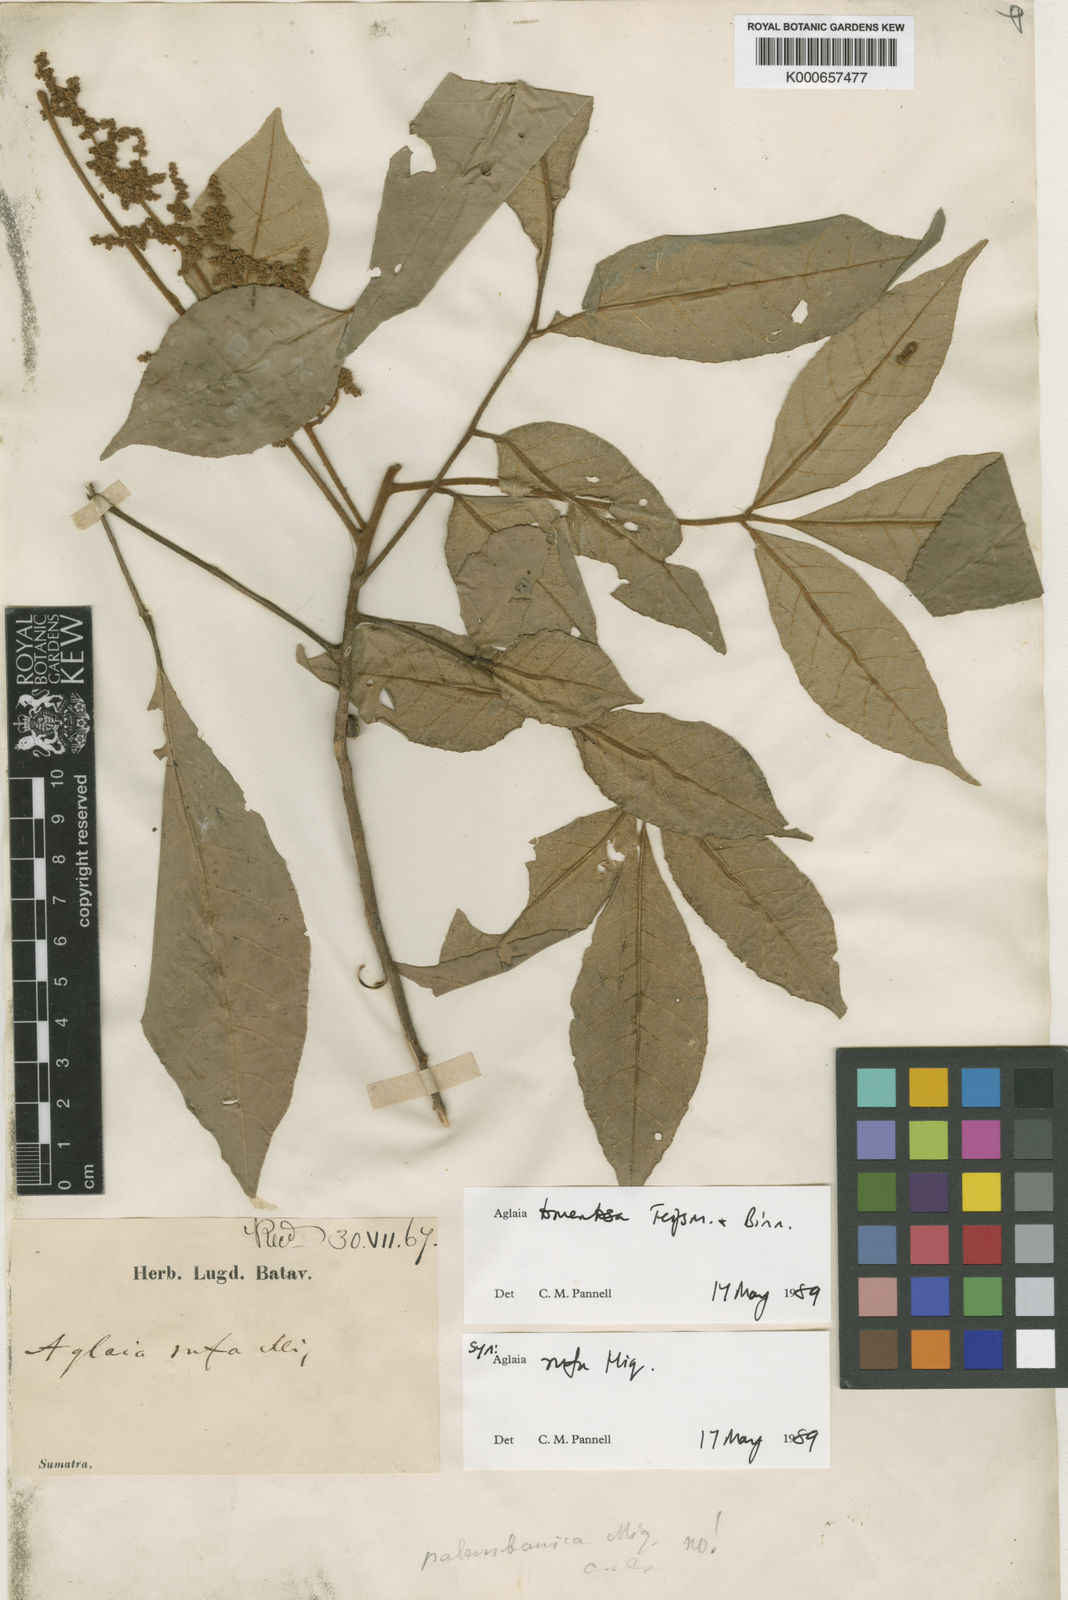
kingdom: Plantae
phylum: Tracheophyta
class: Magnoliopsida
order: Sapindales
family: Meliaceae
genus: Aglaia
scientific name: Aglaia tomentosa
